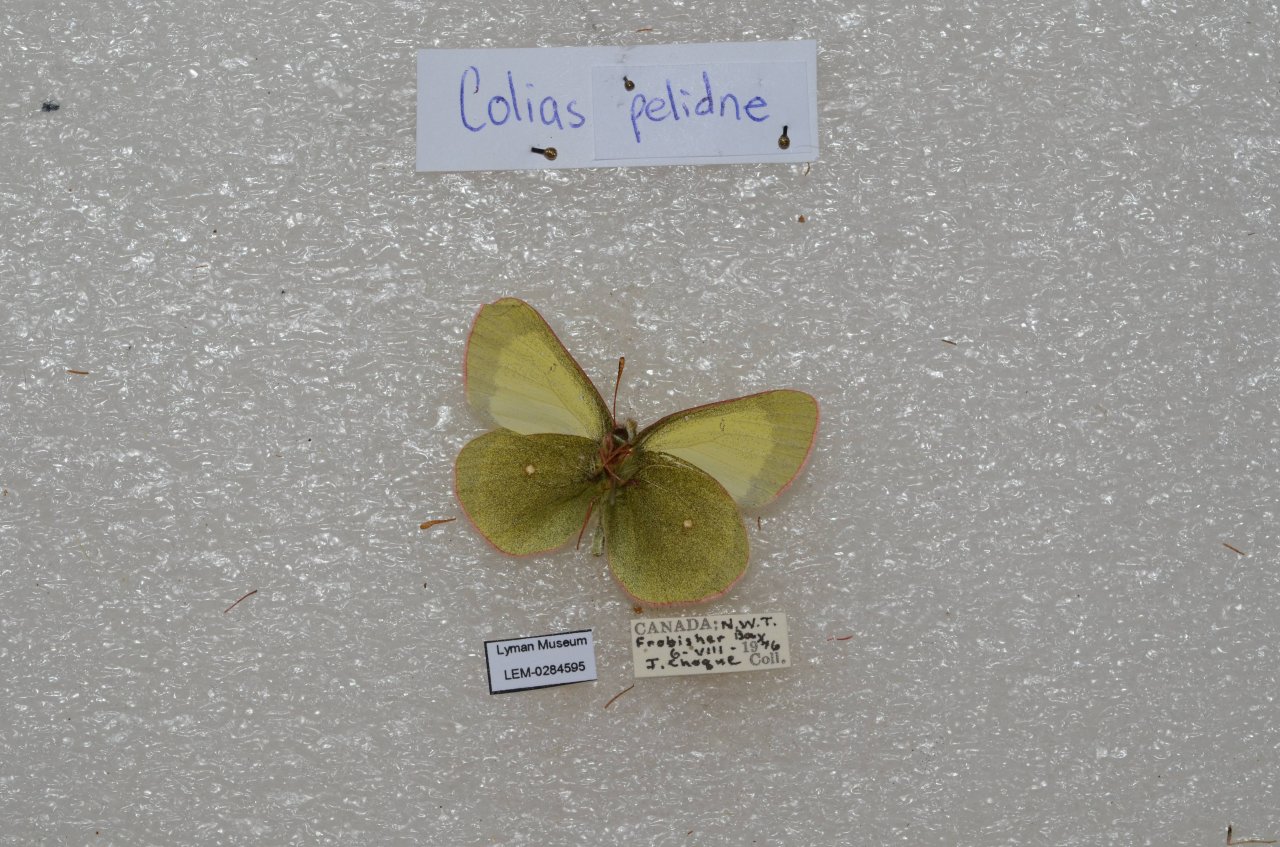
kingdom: Animalia
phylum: Arthropoda
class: Insecta
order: Lepidoptera
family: Pieridae
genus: Colias
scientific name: Colias palaeno
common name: Chippewa Sulphur
